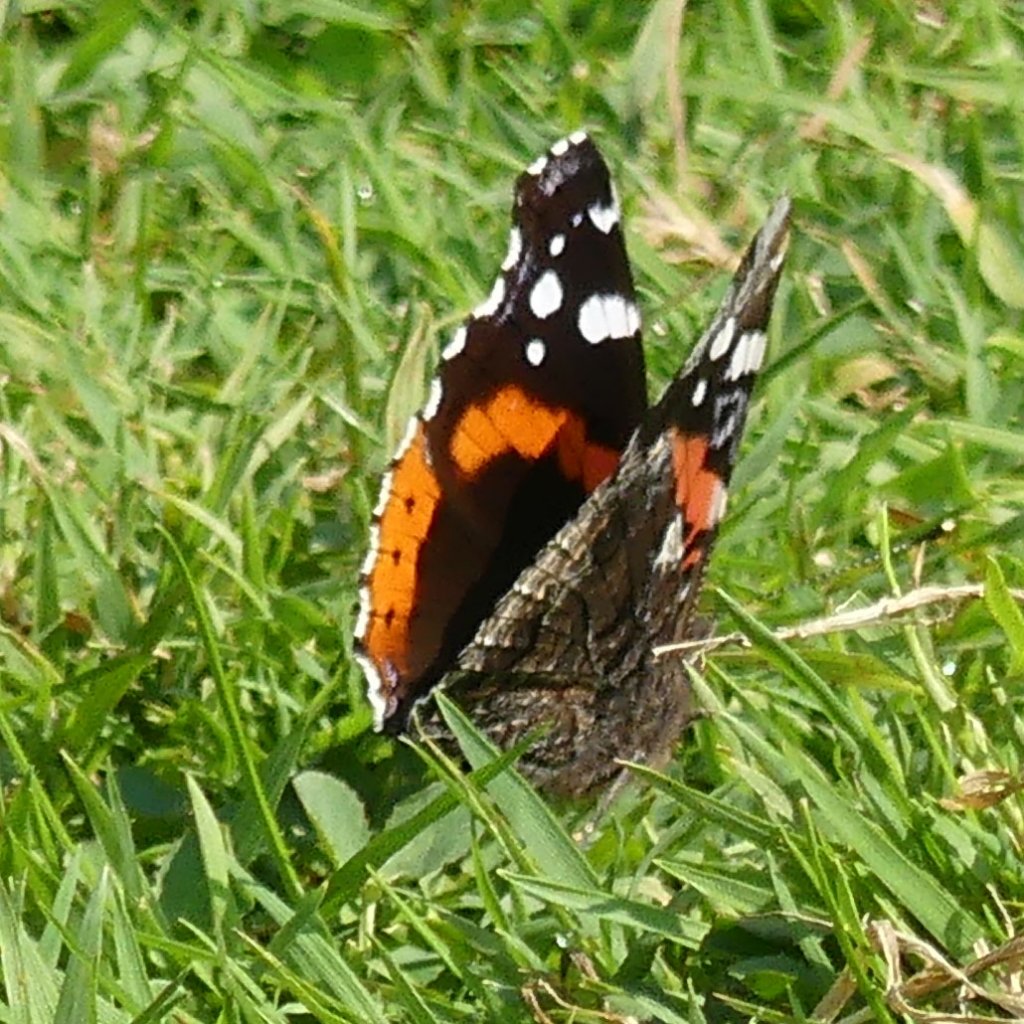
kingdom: Animalia
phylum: Arthropoda
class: Insecta
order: Lepidoptera
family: Nymphalidae
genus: Vanessa
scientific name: Vanessa atalanta
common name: Red Admiral
